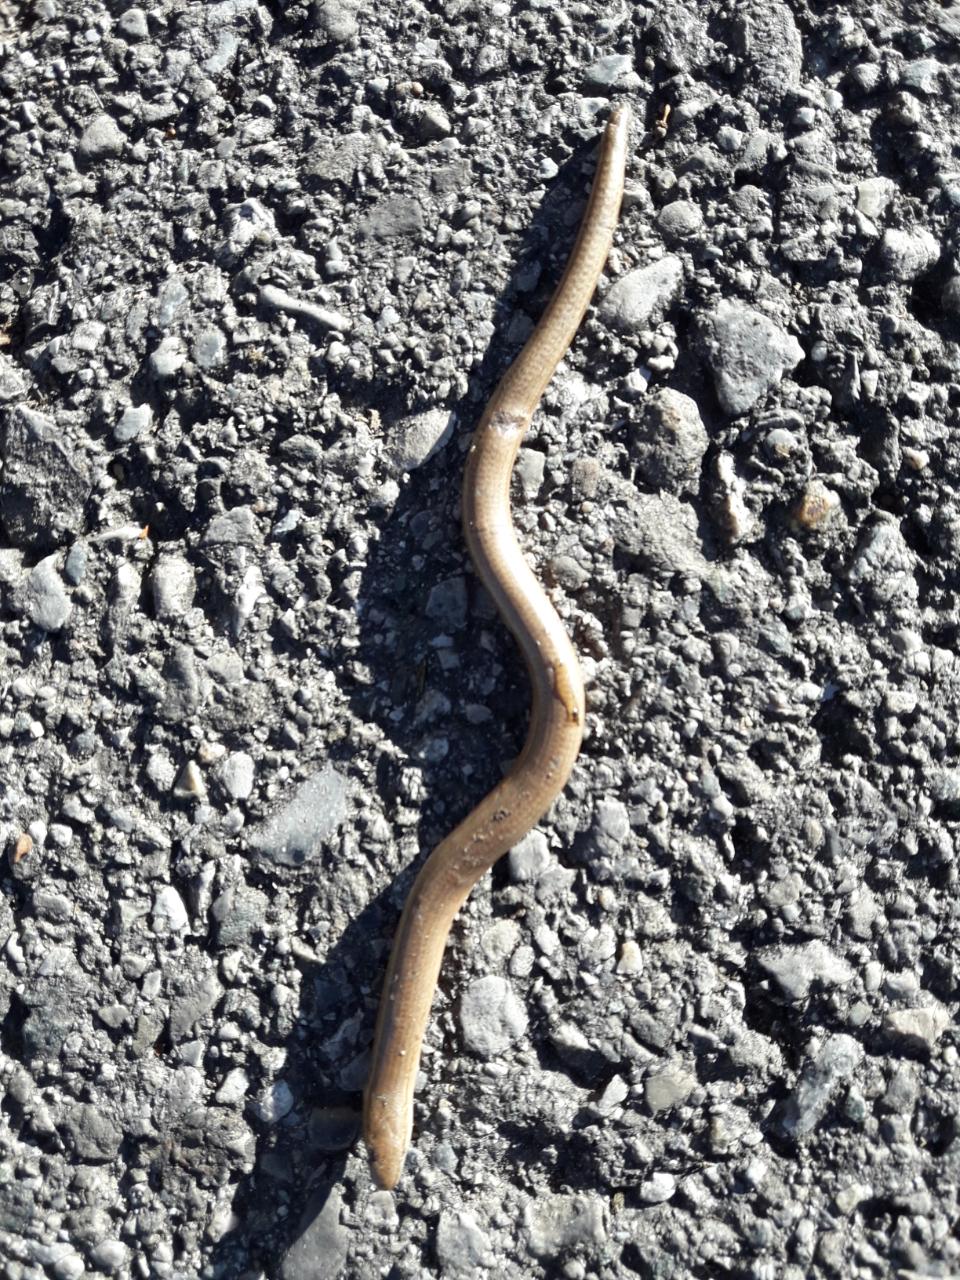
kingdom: Animalia
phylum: Chordata
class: Squamata
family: Anguidae
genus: Anguis
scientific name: Anguis fragilis
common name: Slow worm
